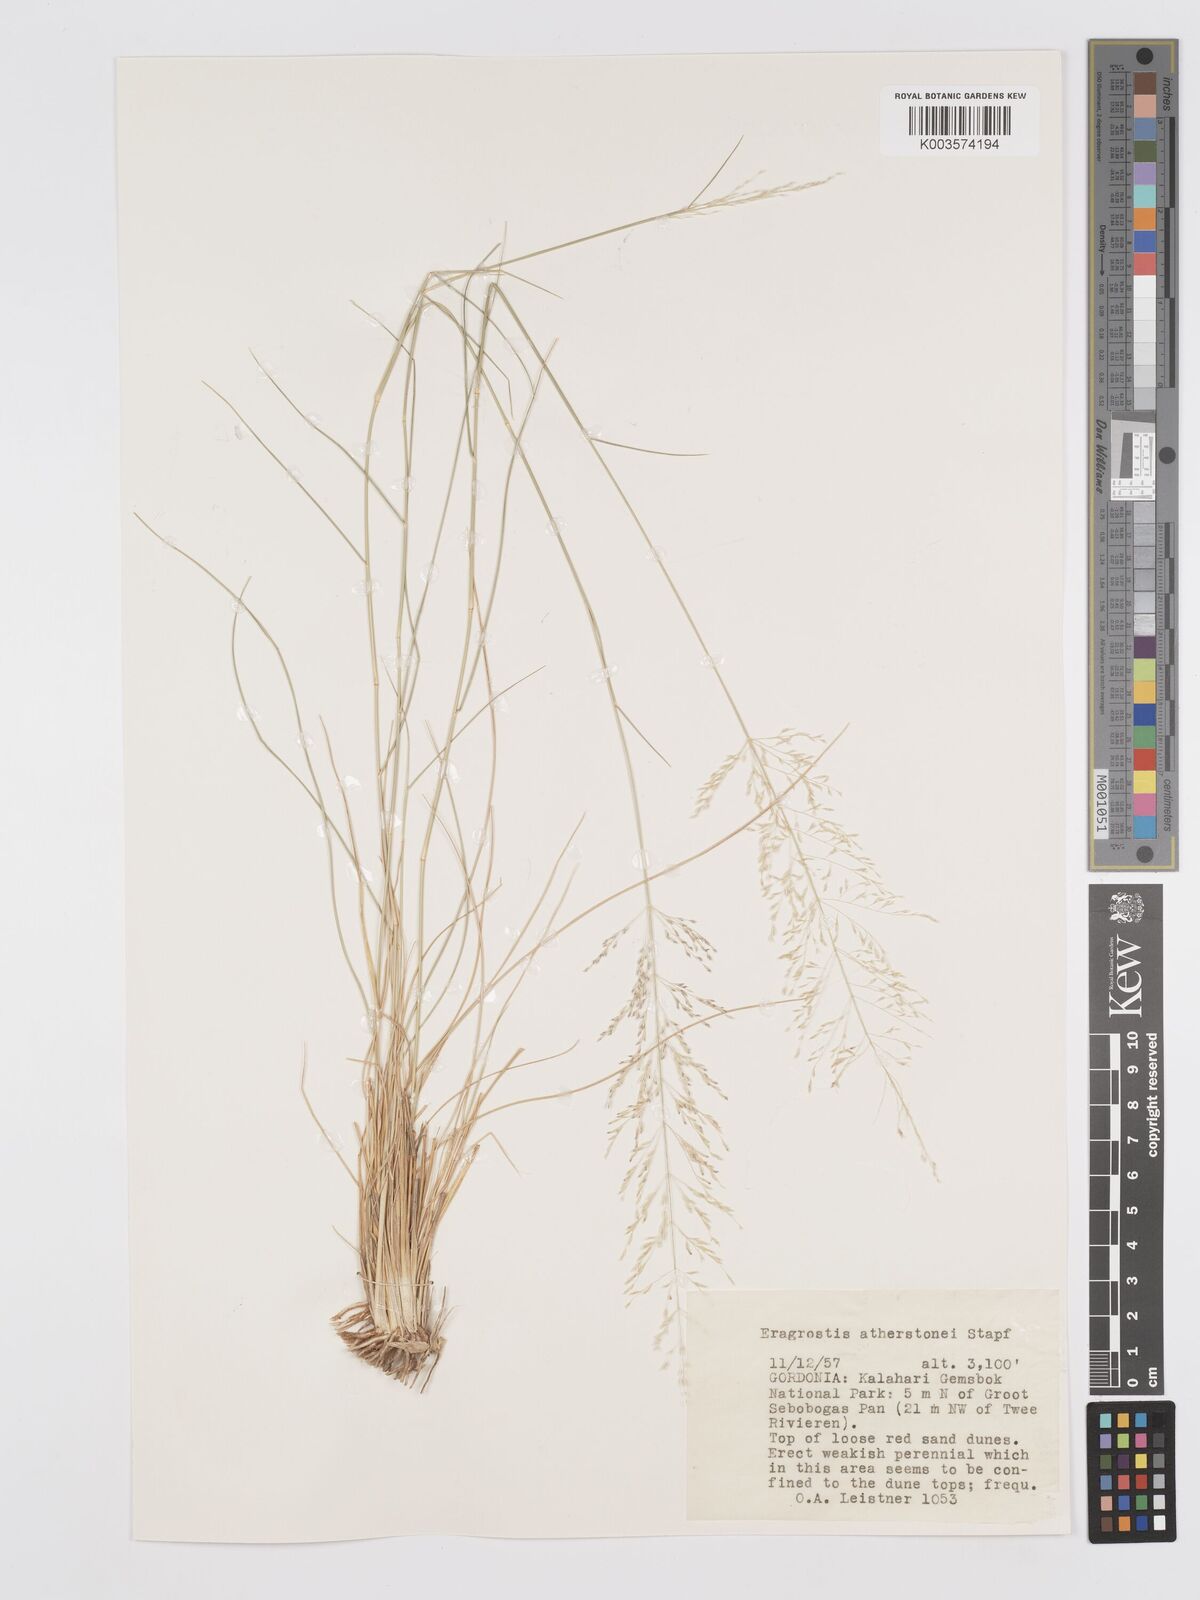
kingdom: Plantae
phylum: Tracheophyta
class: Liliopsida
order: Poales
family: Poaceae
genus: Eragrostis
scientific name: Eragrostis cylindriflora
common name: Cylinderflower lovegrass
